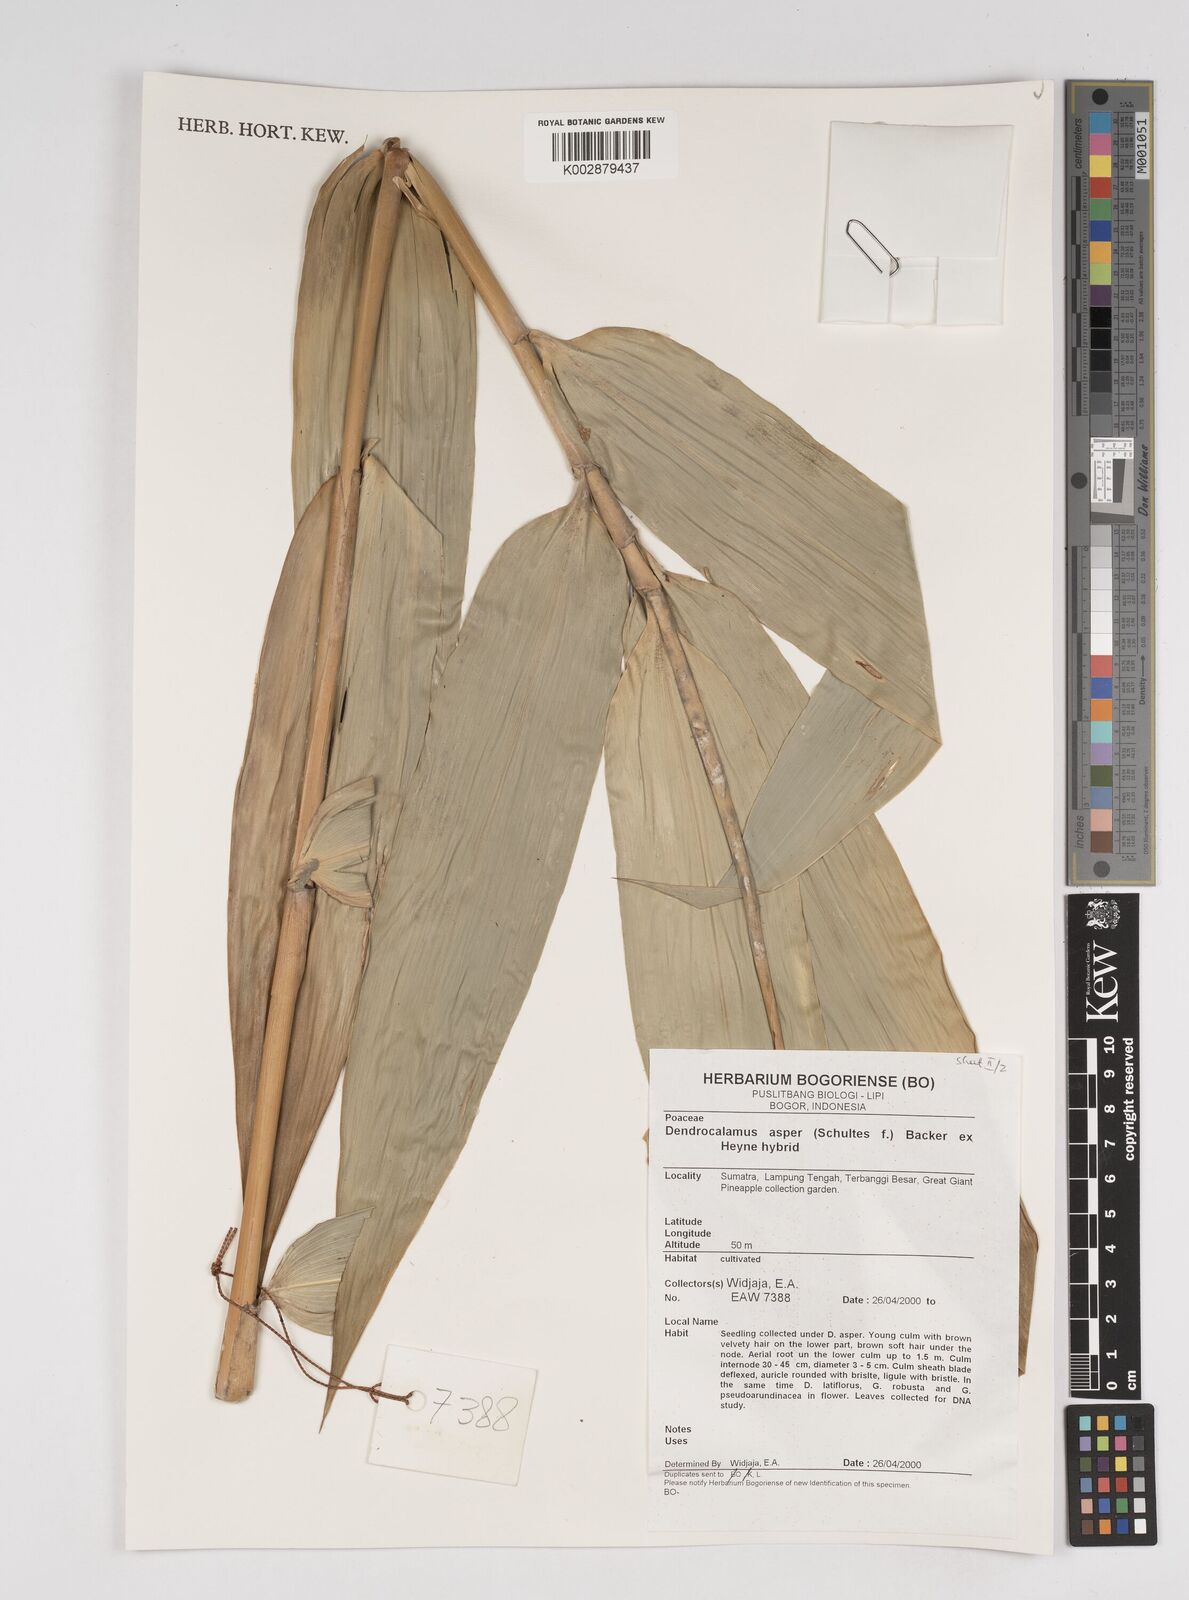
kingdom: Plantae
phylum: Tracheophyta
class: Liliopsida
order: Poales
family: Poaceae
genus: Dendrocalamus
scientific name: Dendrocalamus asper
